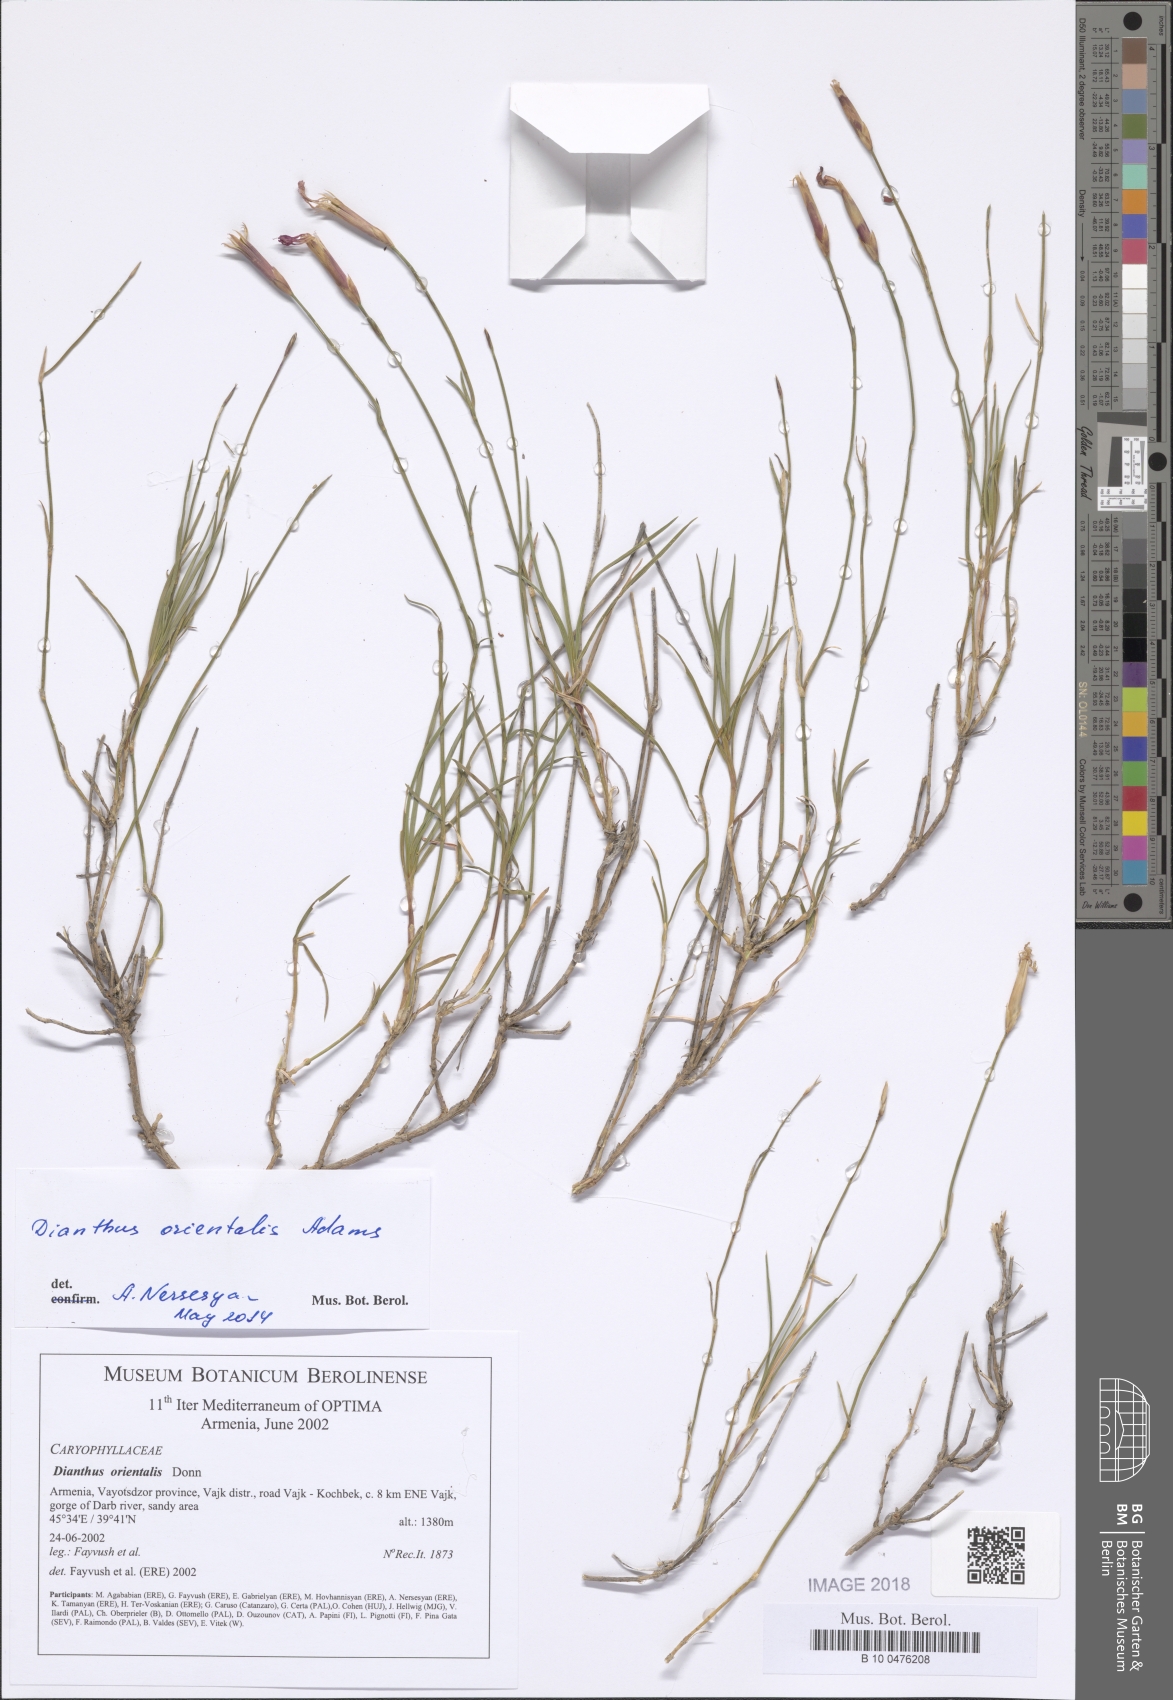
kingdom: Plantae
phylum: Tracheophyta
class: Magnoliopsida
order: Caryophyllales
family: Caryophyllaceae
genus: Dianthus
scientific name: Dianthus orientalis
